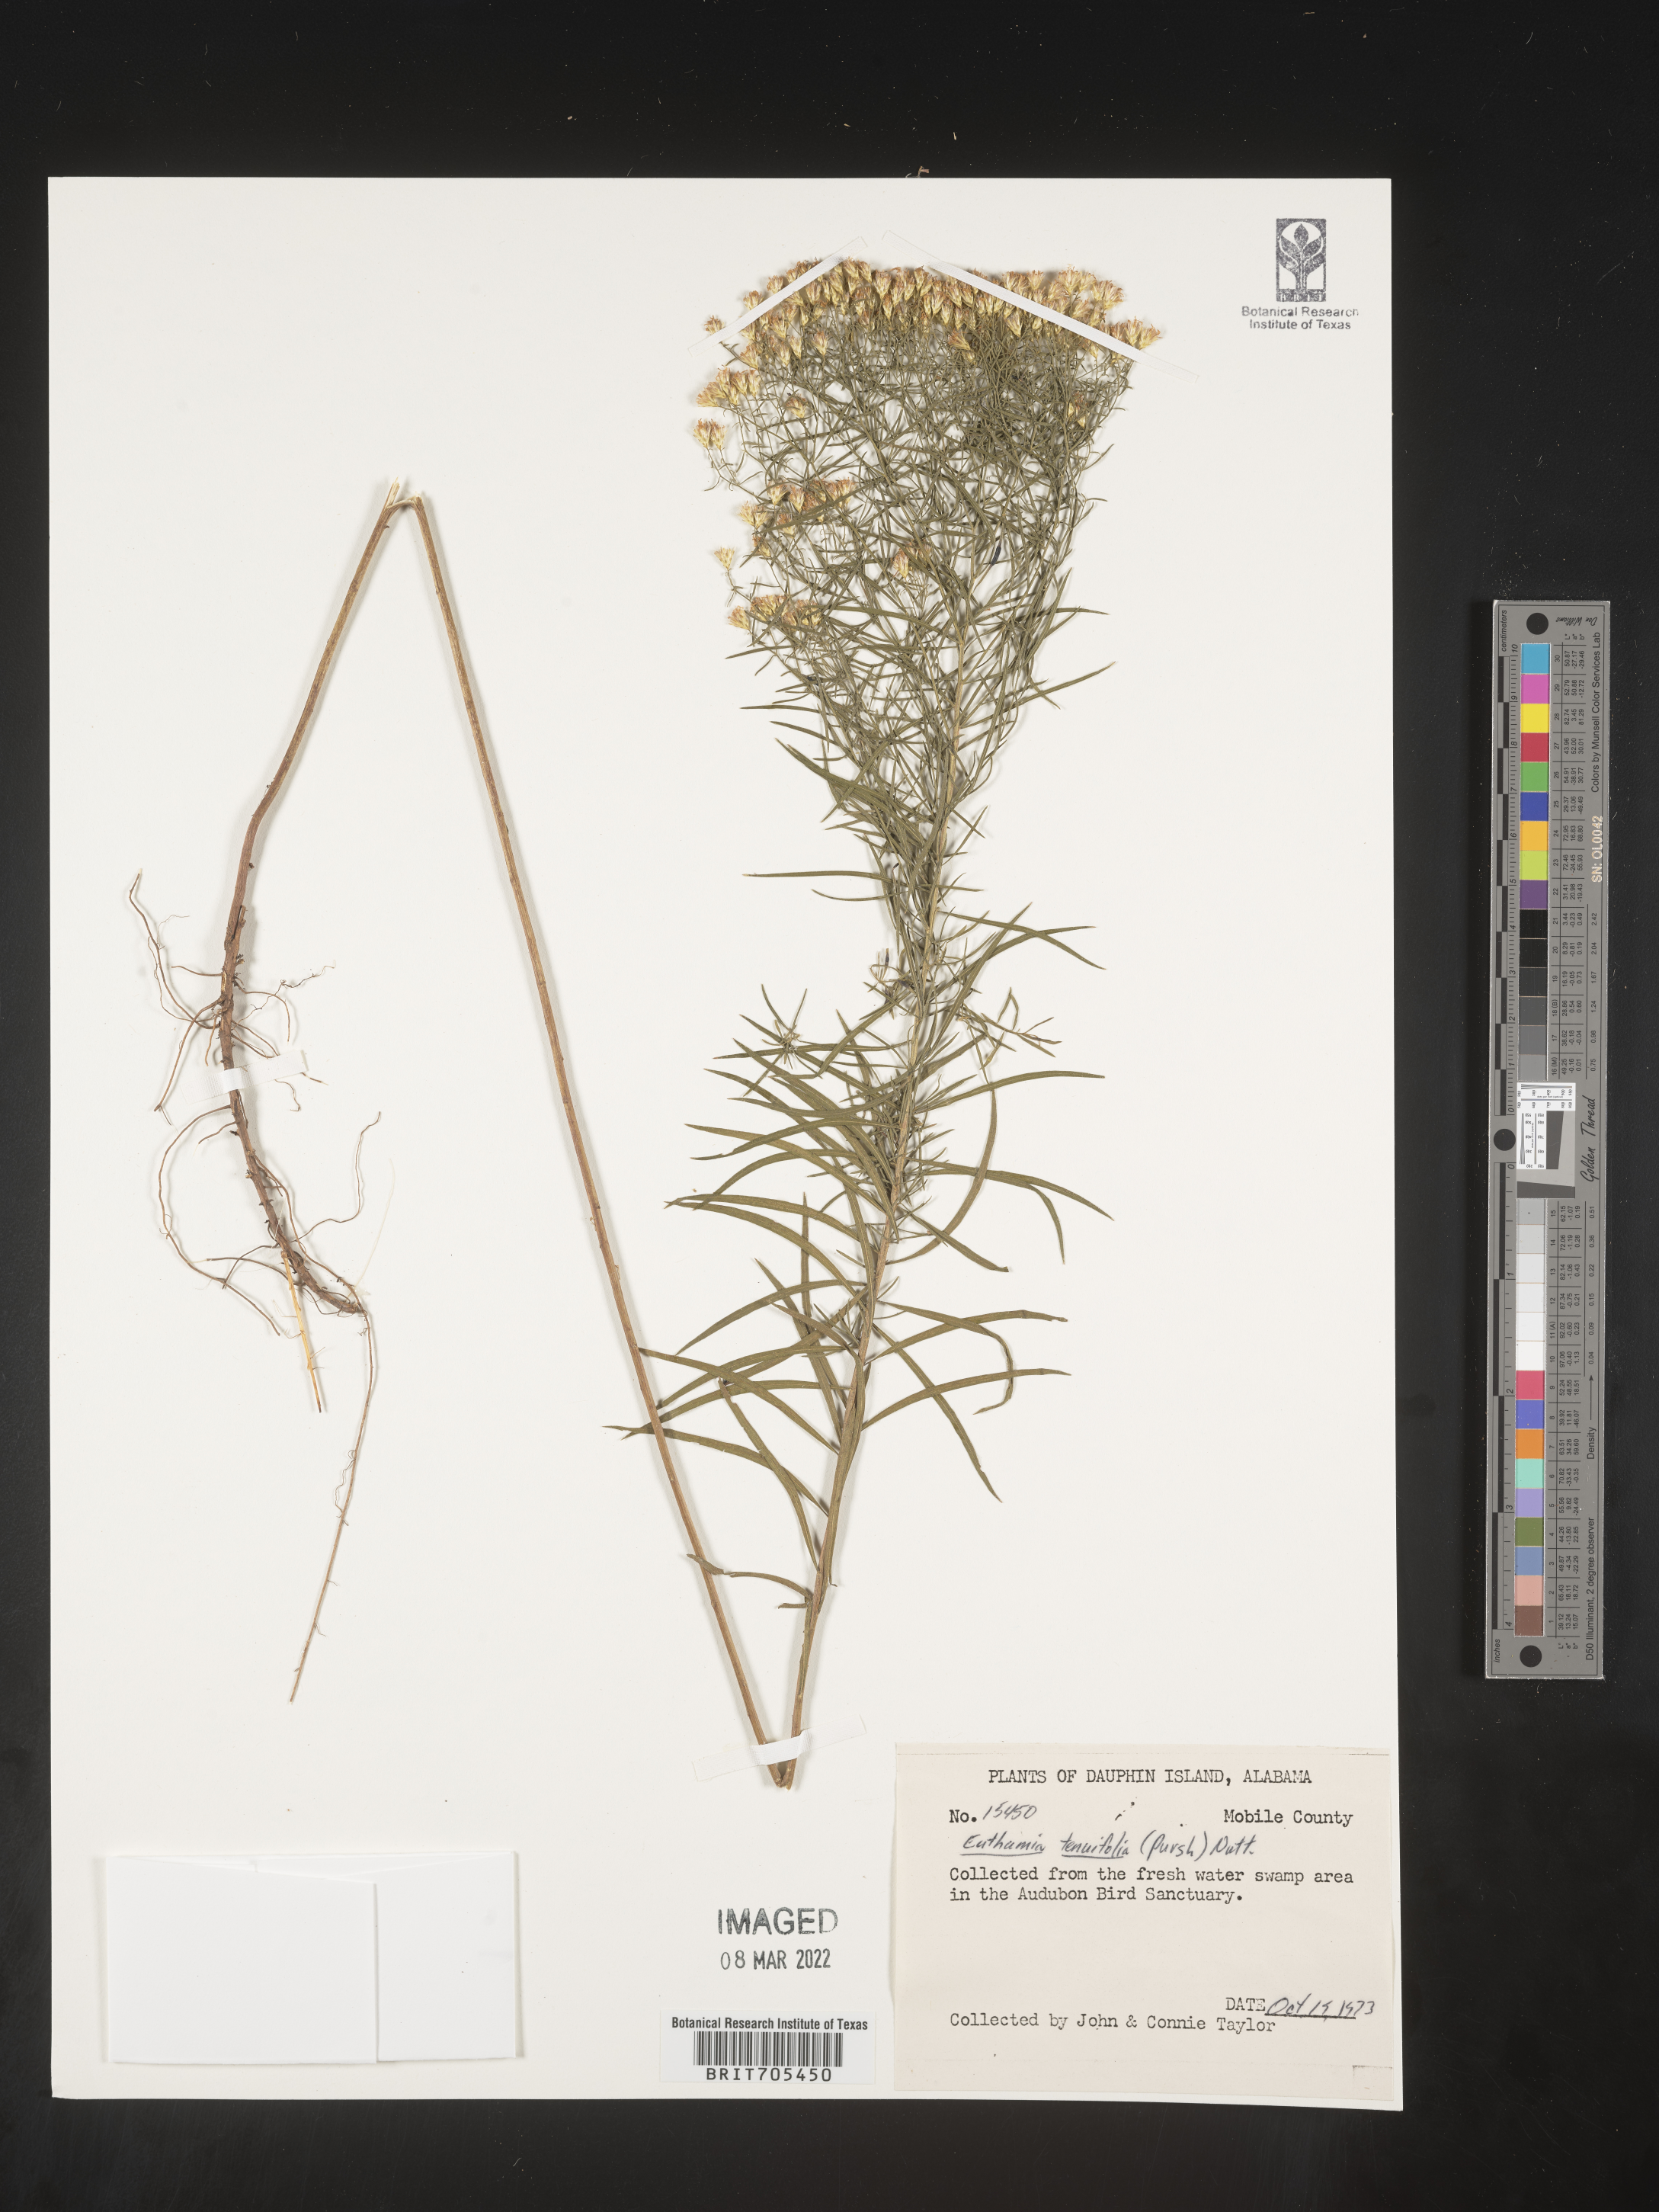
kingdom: Plantae
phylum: Tracheophyta
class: Magnoliopsida
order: Asterales
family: Asteraceae
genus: Euthamia
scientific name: Euthamia scabra
